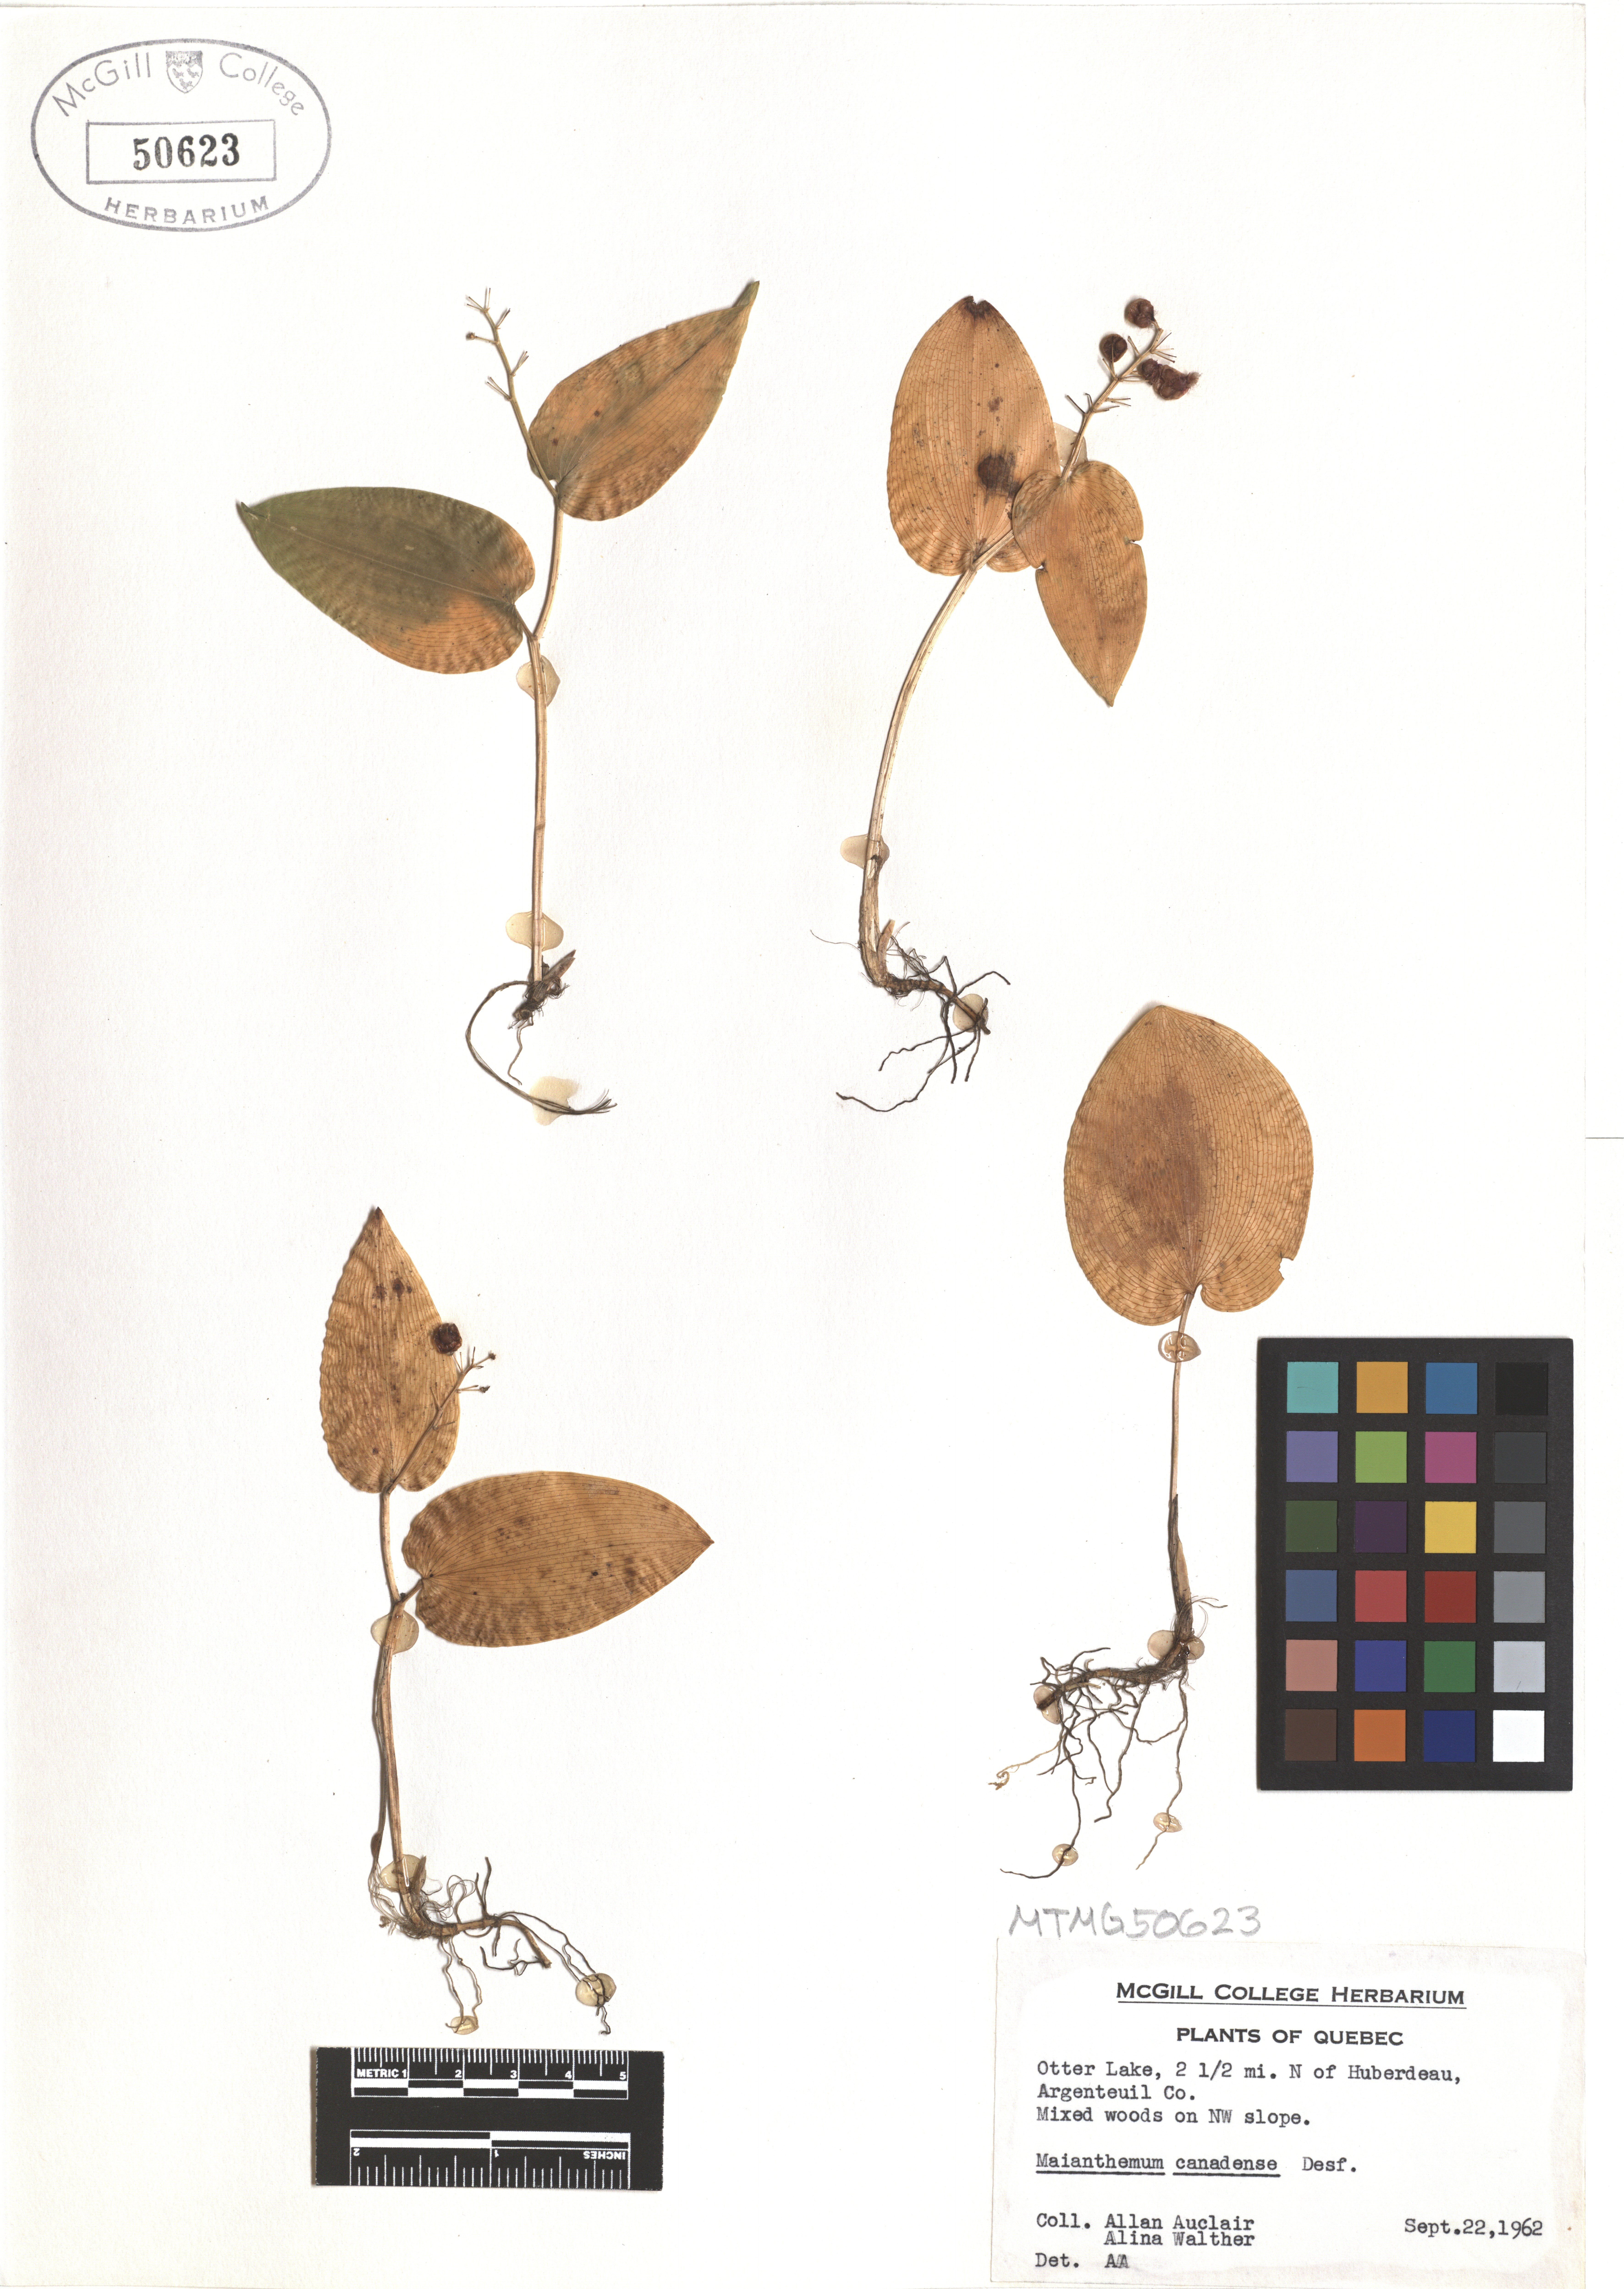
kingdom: Plantae
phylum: Tracheophyta
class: Liliopsida
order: Asparagales
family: Asparagaceae
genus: Maianthemum
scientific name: Maianthemum canadense
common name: False lily-of-the-valley
